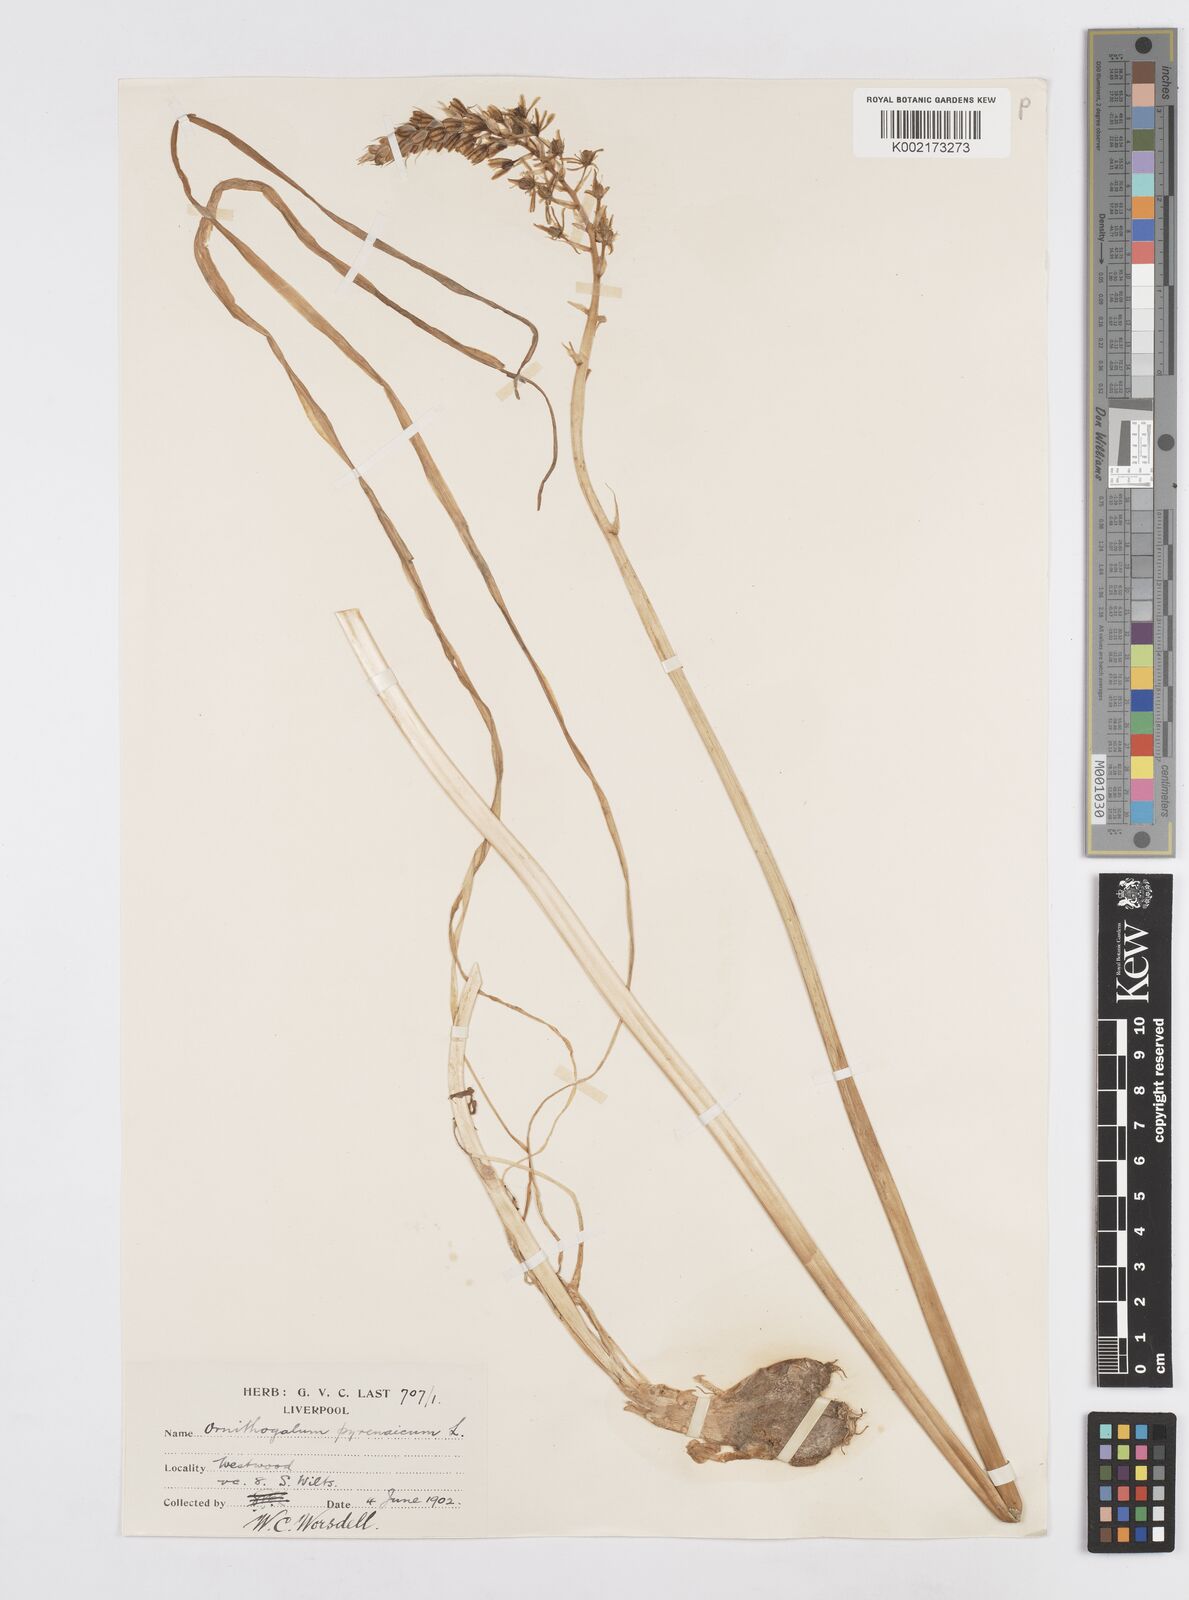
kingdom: Plantae
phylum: Tracheophyta
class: Liliopsida
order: Asparagales
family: Asparagaceae
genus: Ornithogalum
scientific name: Ornithogalum pyrenaicum
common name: Spiked star-of-bethlehem
